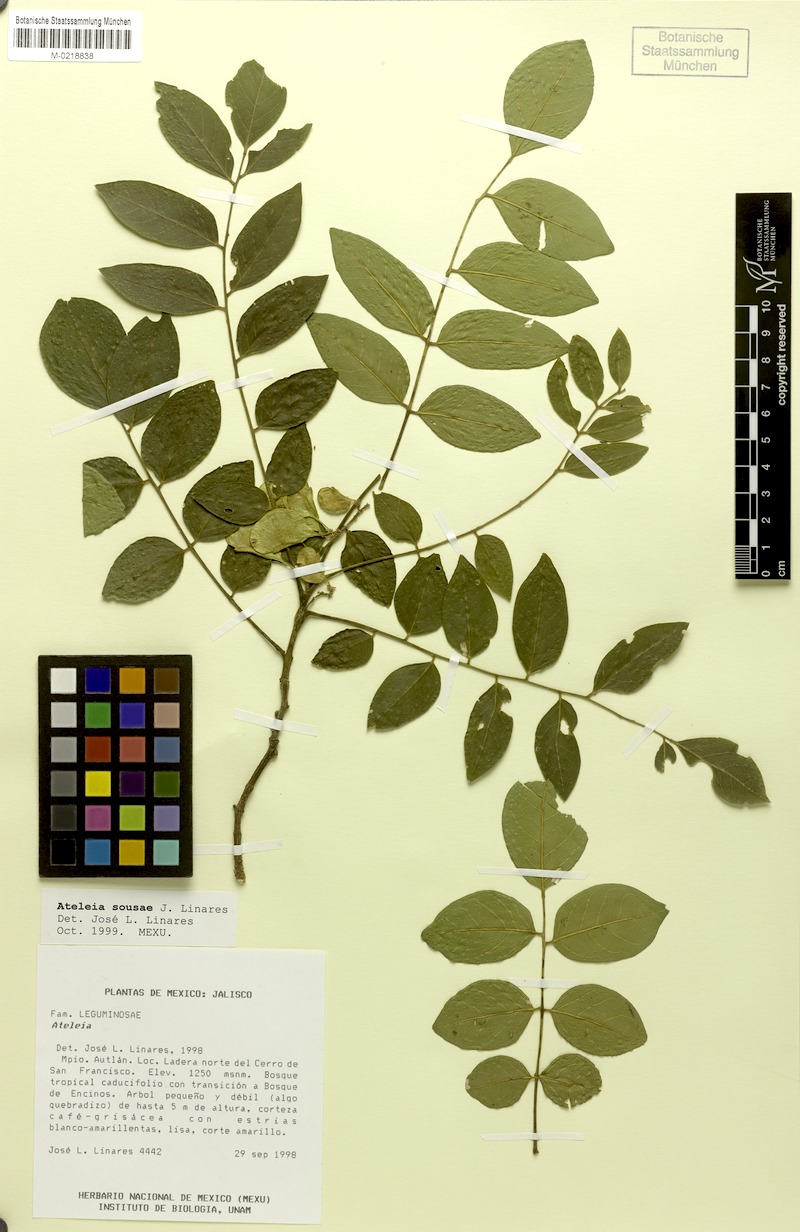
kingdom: Plantae
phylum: Tracheophyta
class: Magnoliopsida
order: Fabales
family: Fabaceae
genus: Ateleia
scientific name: Ateleia sousae
